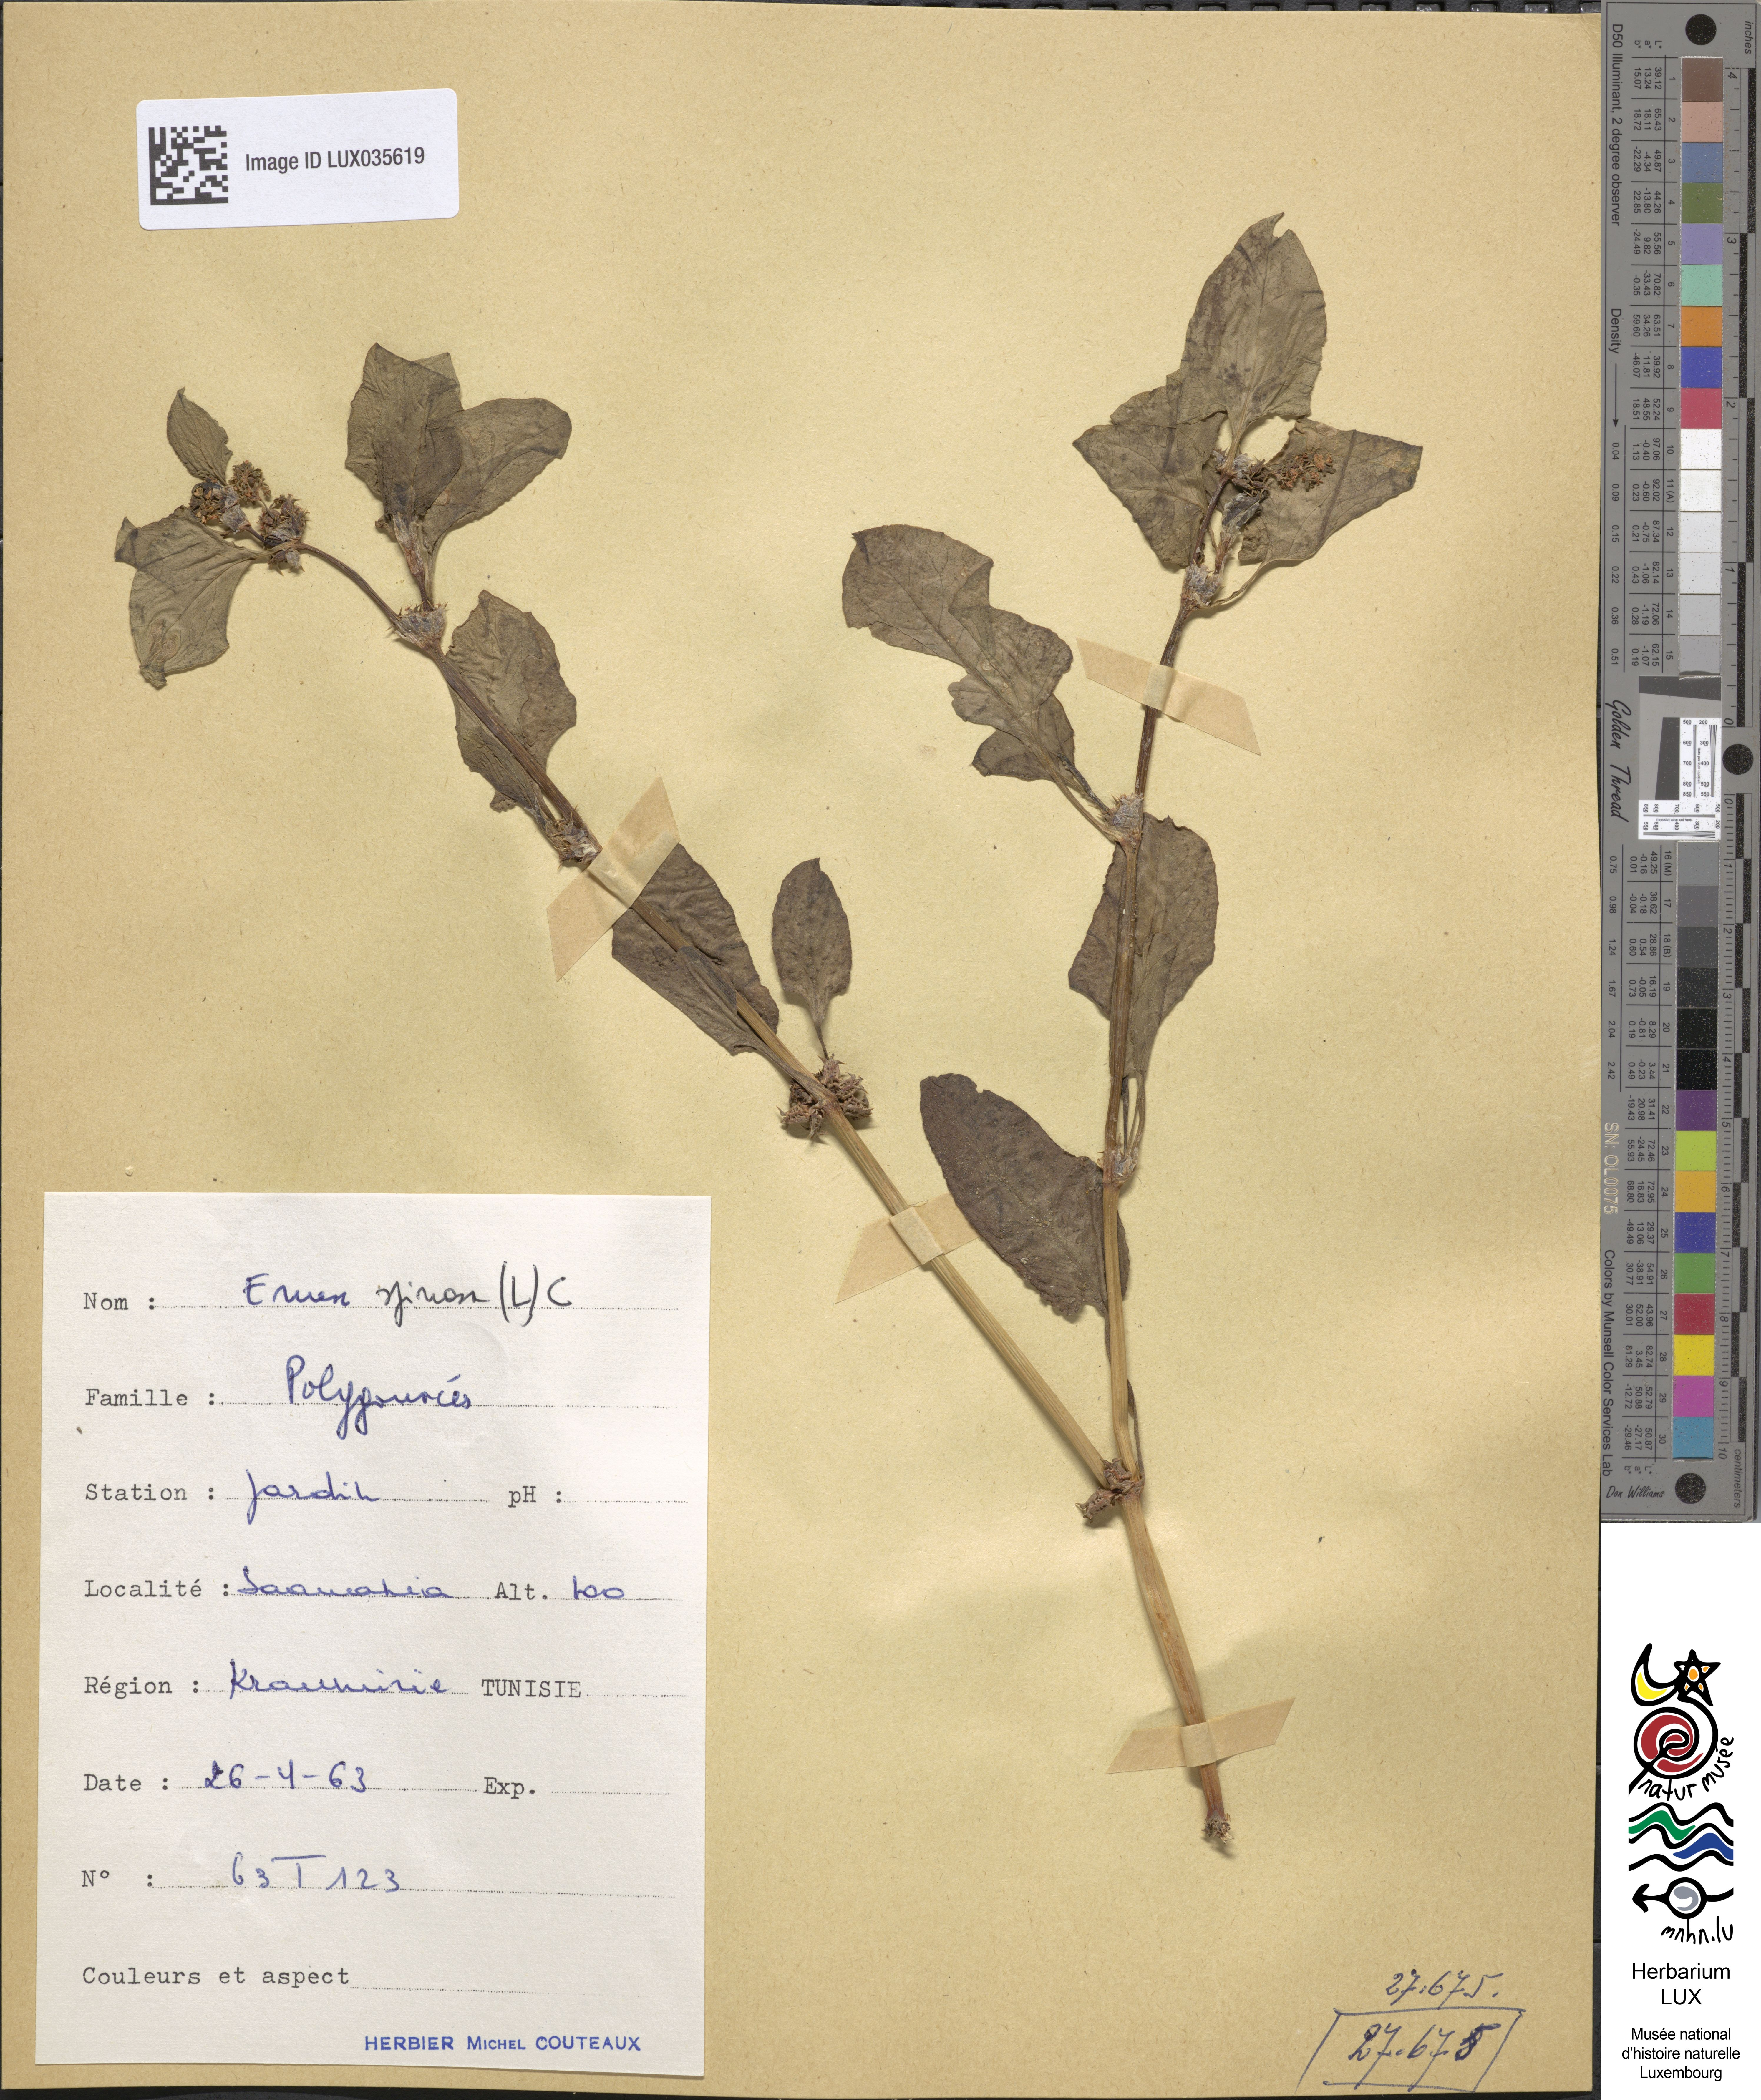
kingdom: Plantae
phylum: Tracheophyta
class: Magnoliopsida
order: Caryophyllales
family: Polygonaceae
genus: Rumex
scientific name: Rumex spinosus
